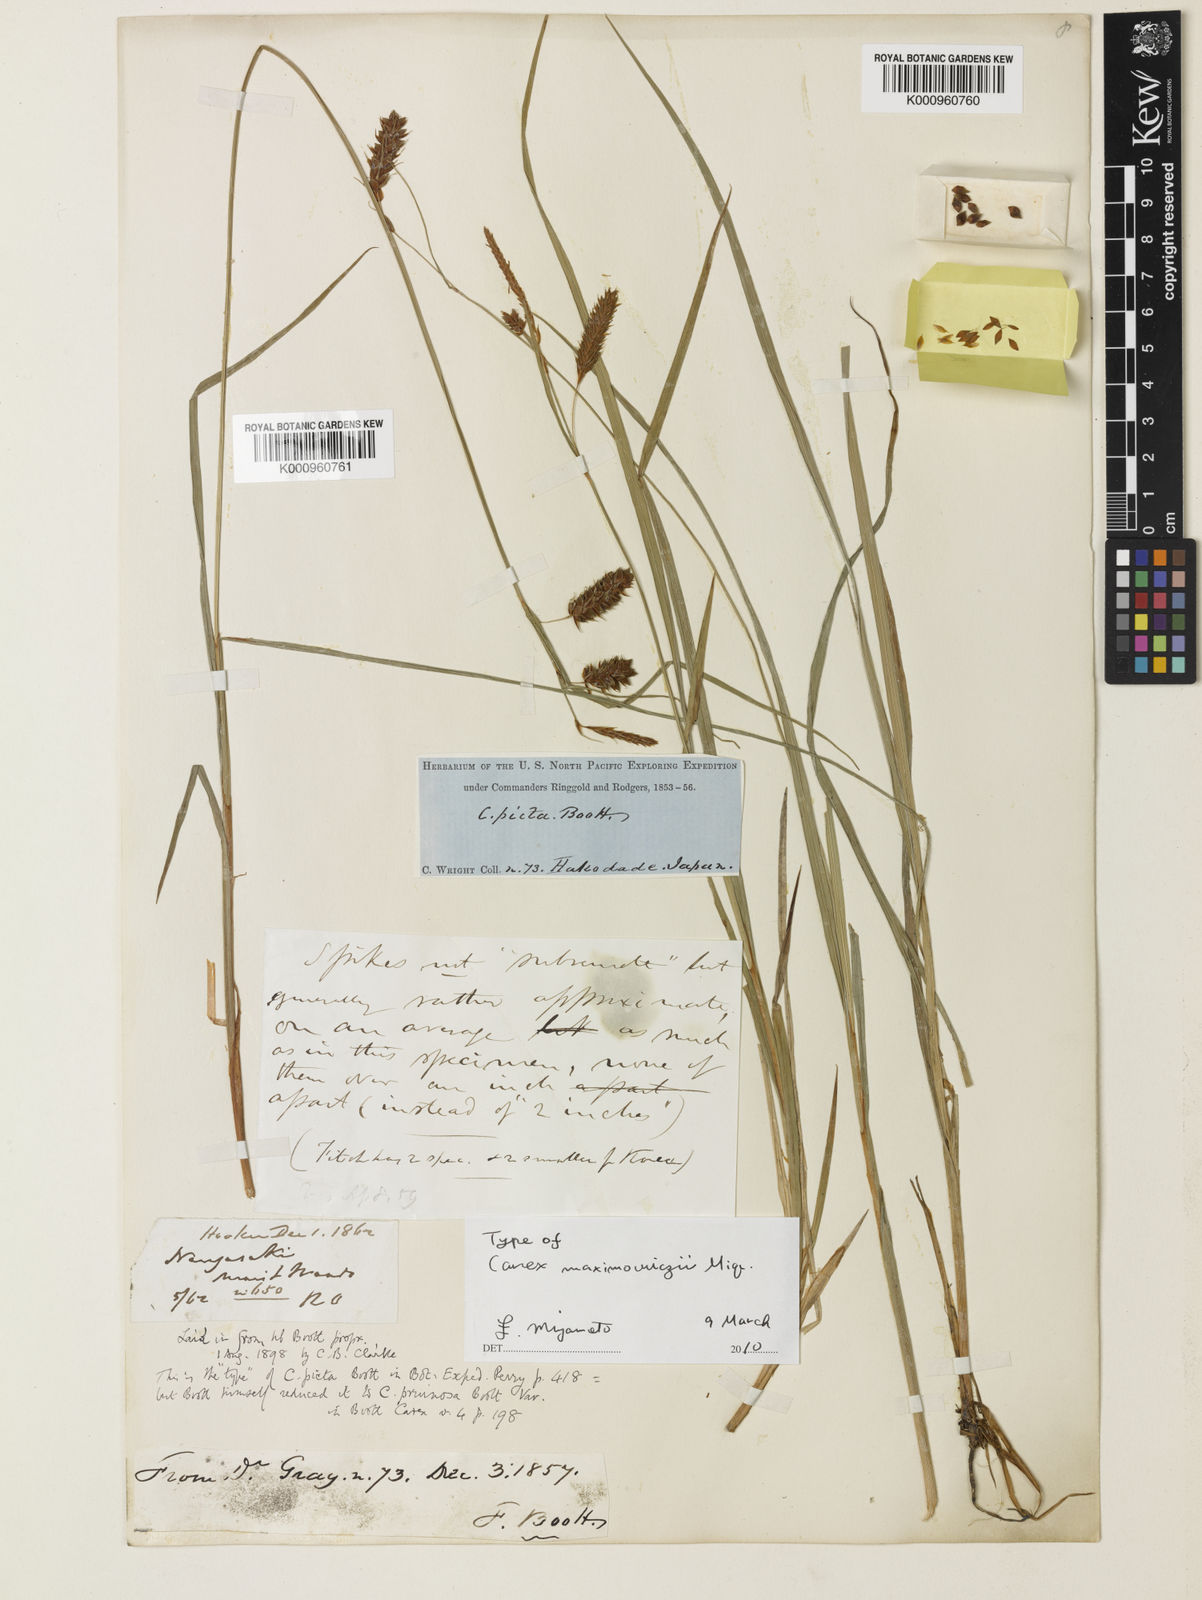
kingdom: Plantae
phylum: Tracheophyta
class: Liliopsida
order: Poales
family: Cyperaceae
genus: Carex
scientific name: Carex pruinosa
